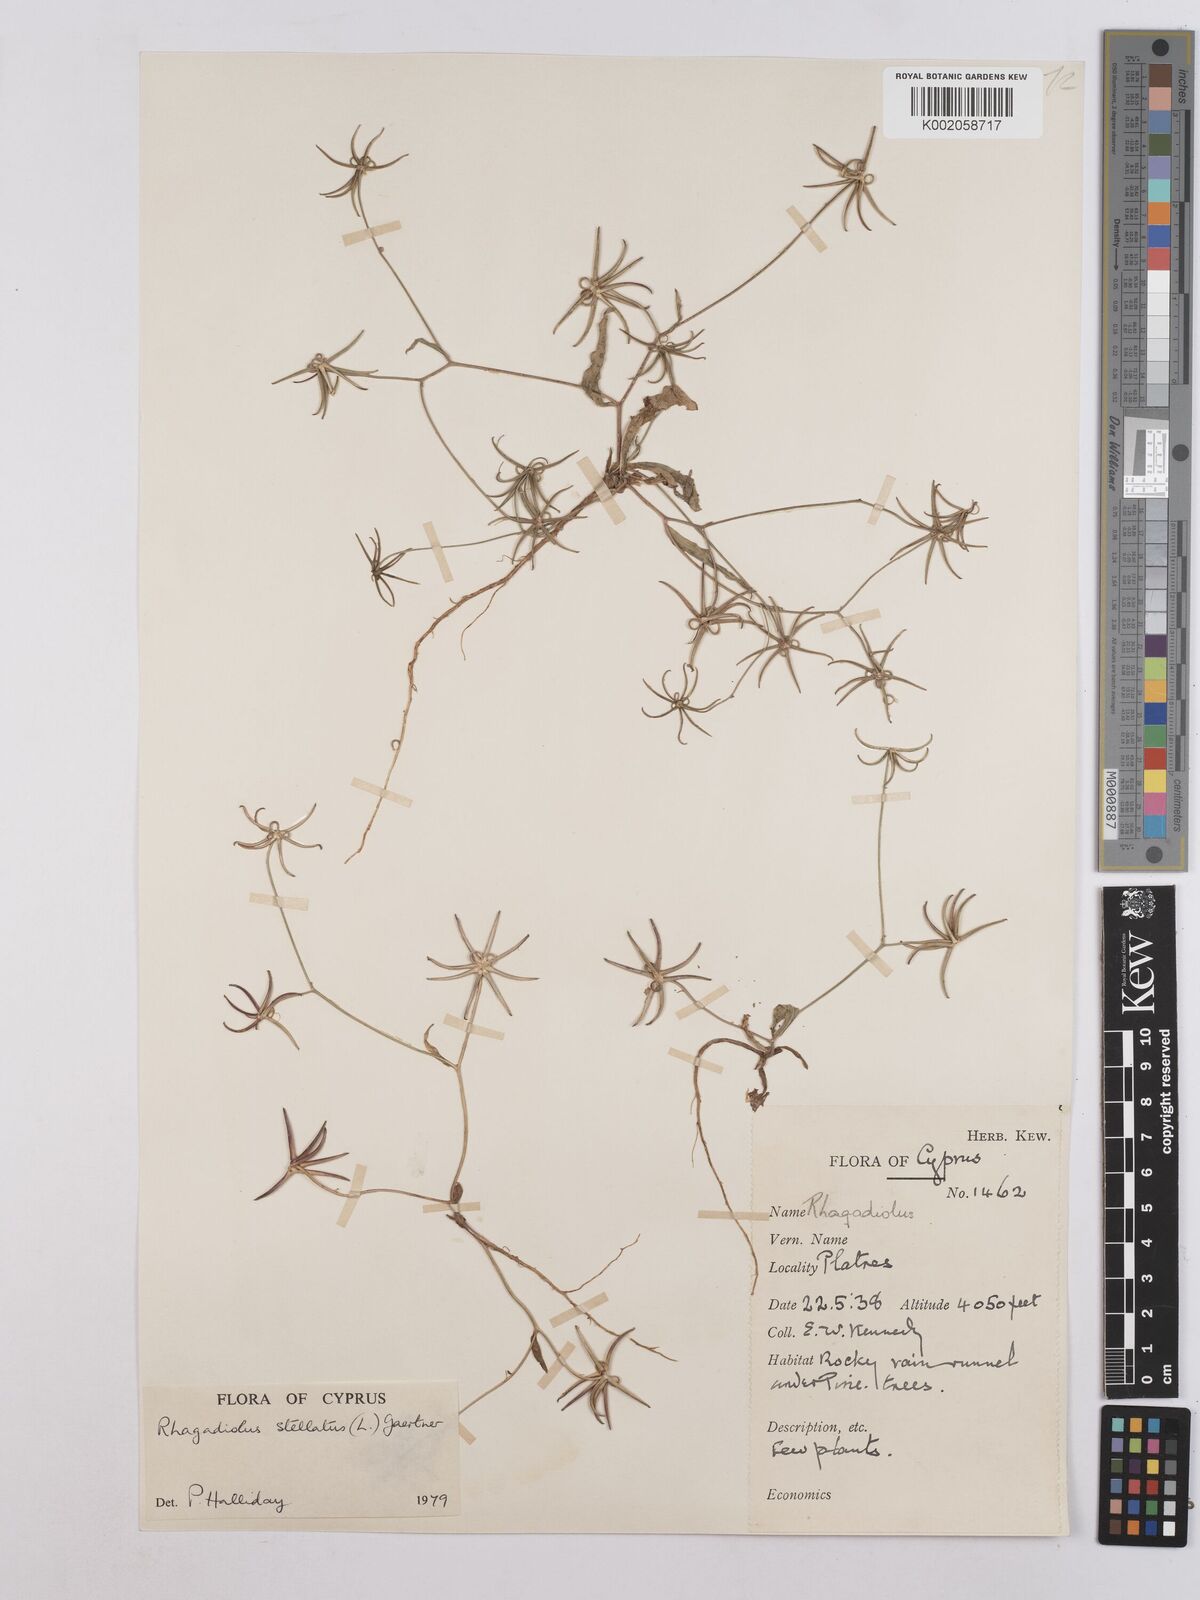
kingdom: Plantae
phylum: Tracheophyta
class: Magnoliopsida
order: Asterales
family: Asteraceae
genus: Rhagadiolus
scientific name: Rhagadiolus stellatus
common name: Star hawkbit
